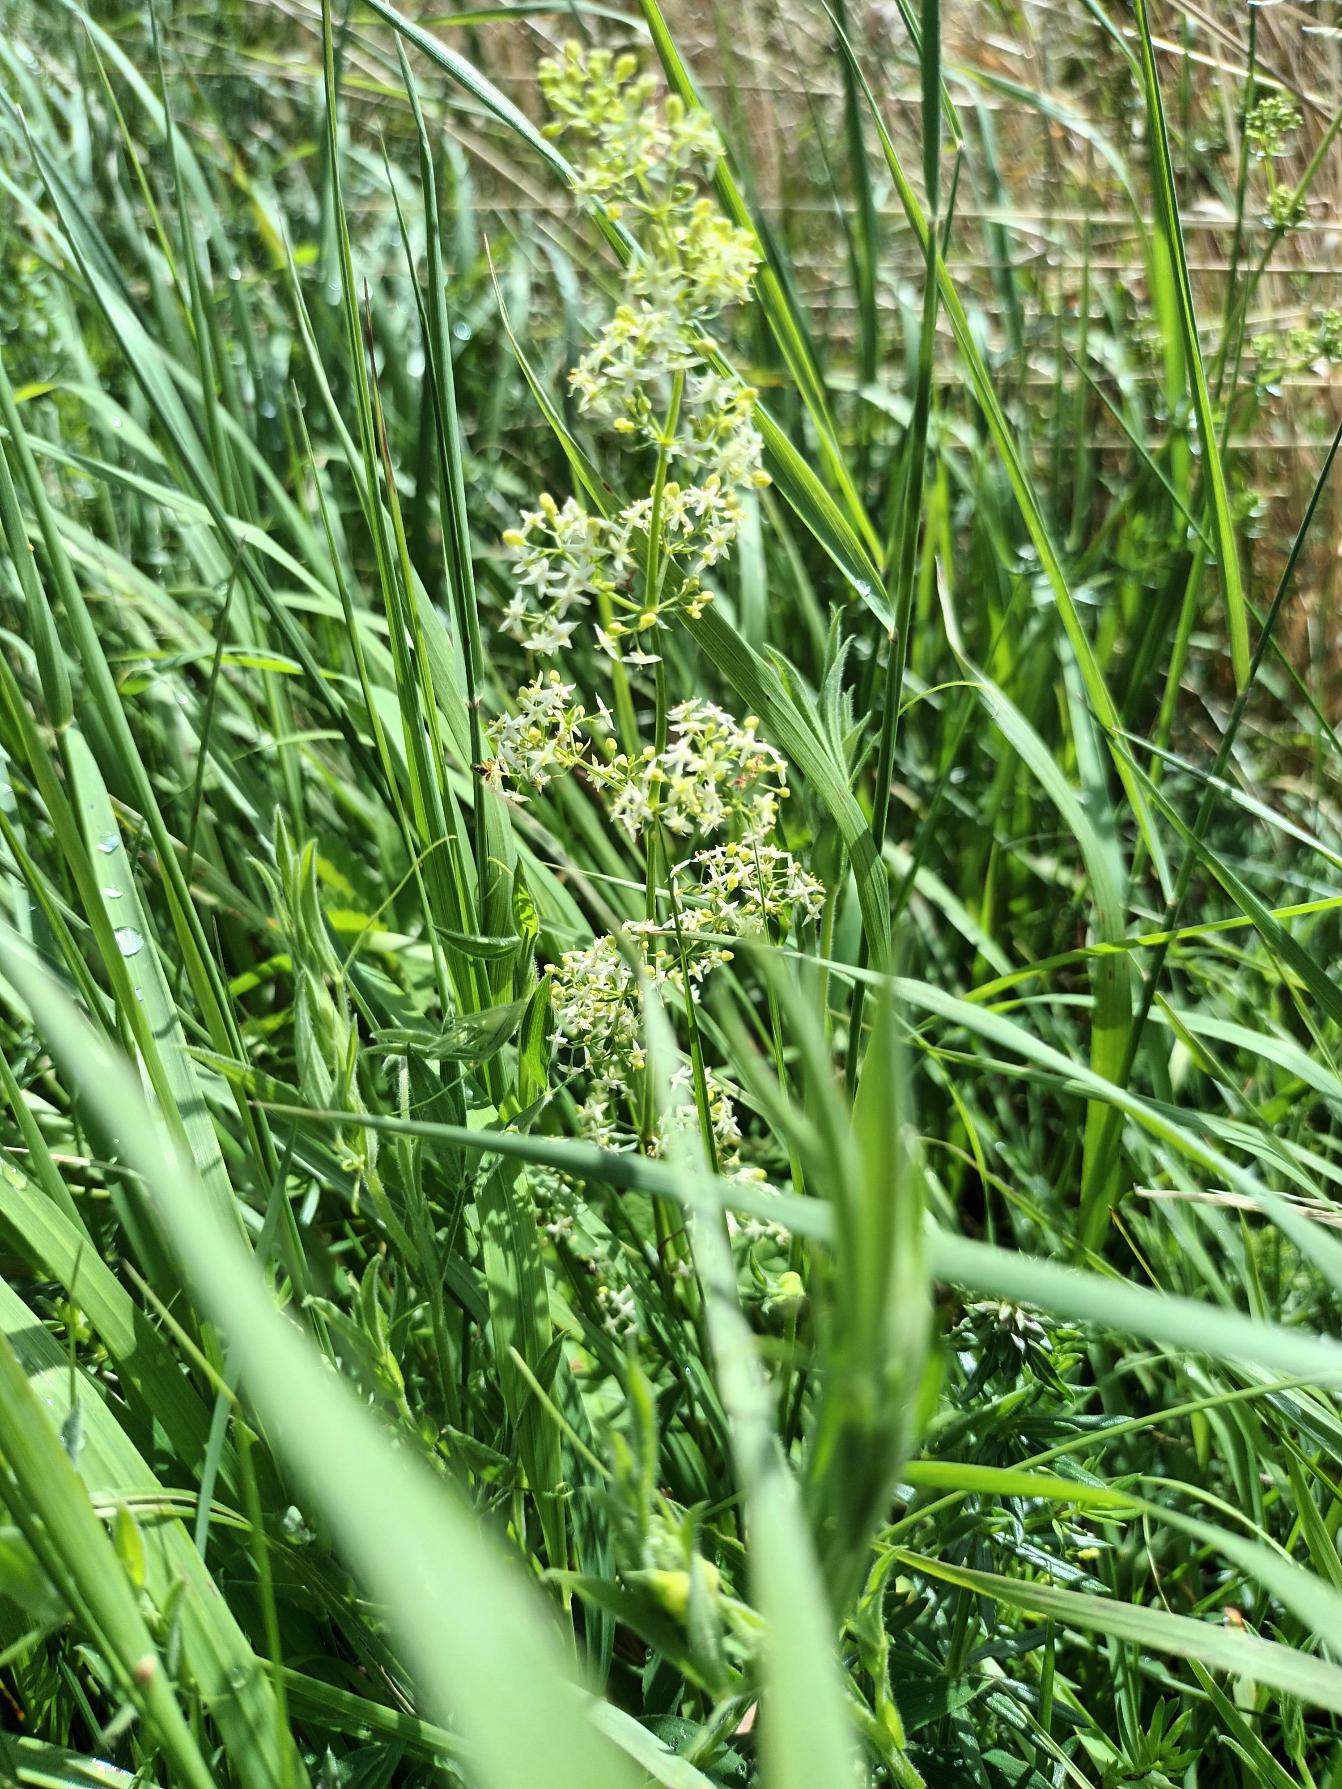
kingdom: Plantae
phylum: Tracheophyta
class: Magnoliopsida
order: Gentianales
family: Rubiaceae
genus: Galium
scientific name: Galium mollugo
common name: Hvid snerre
